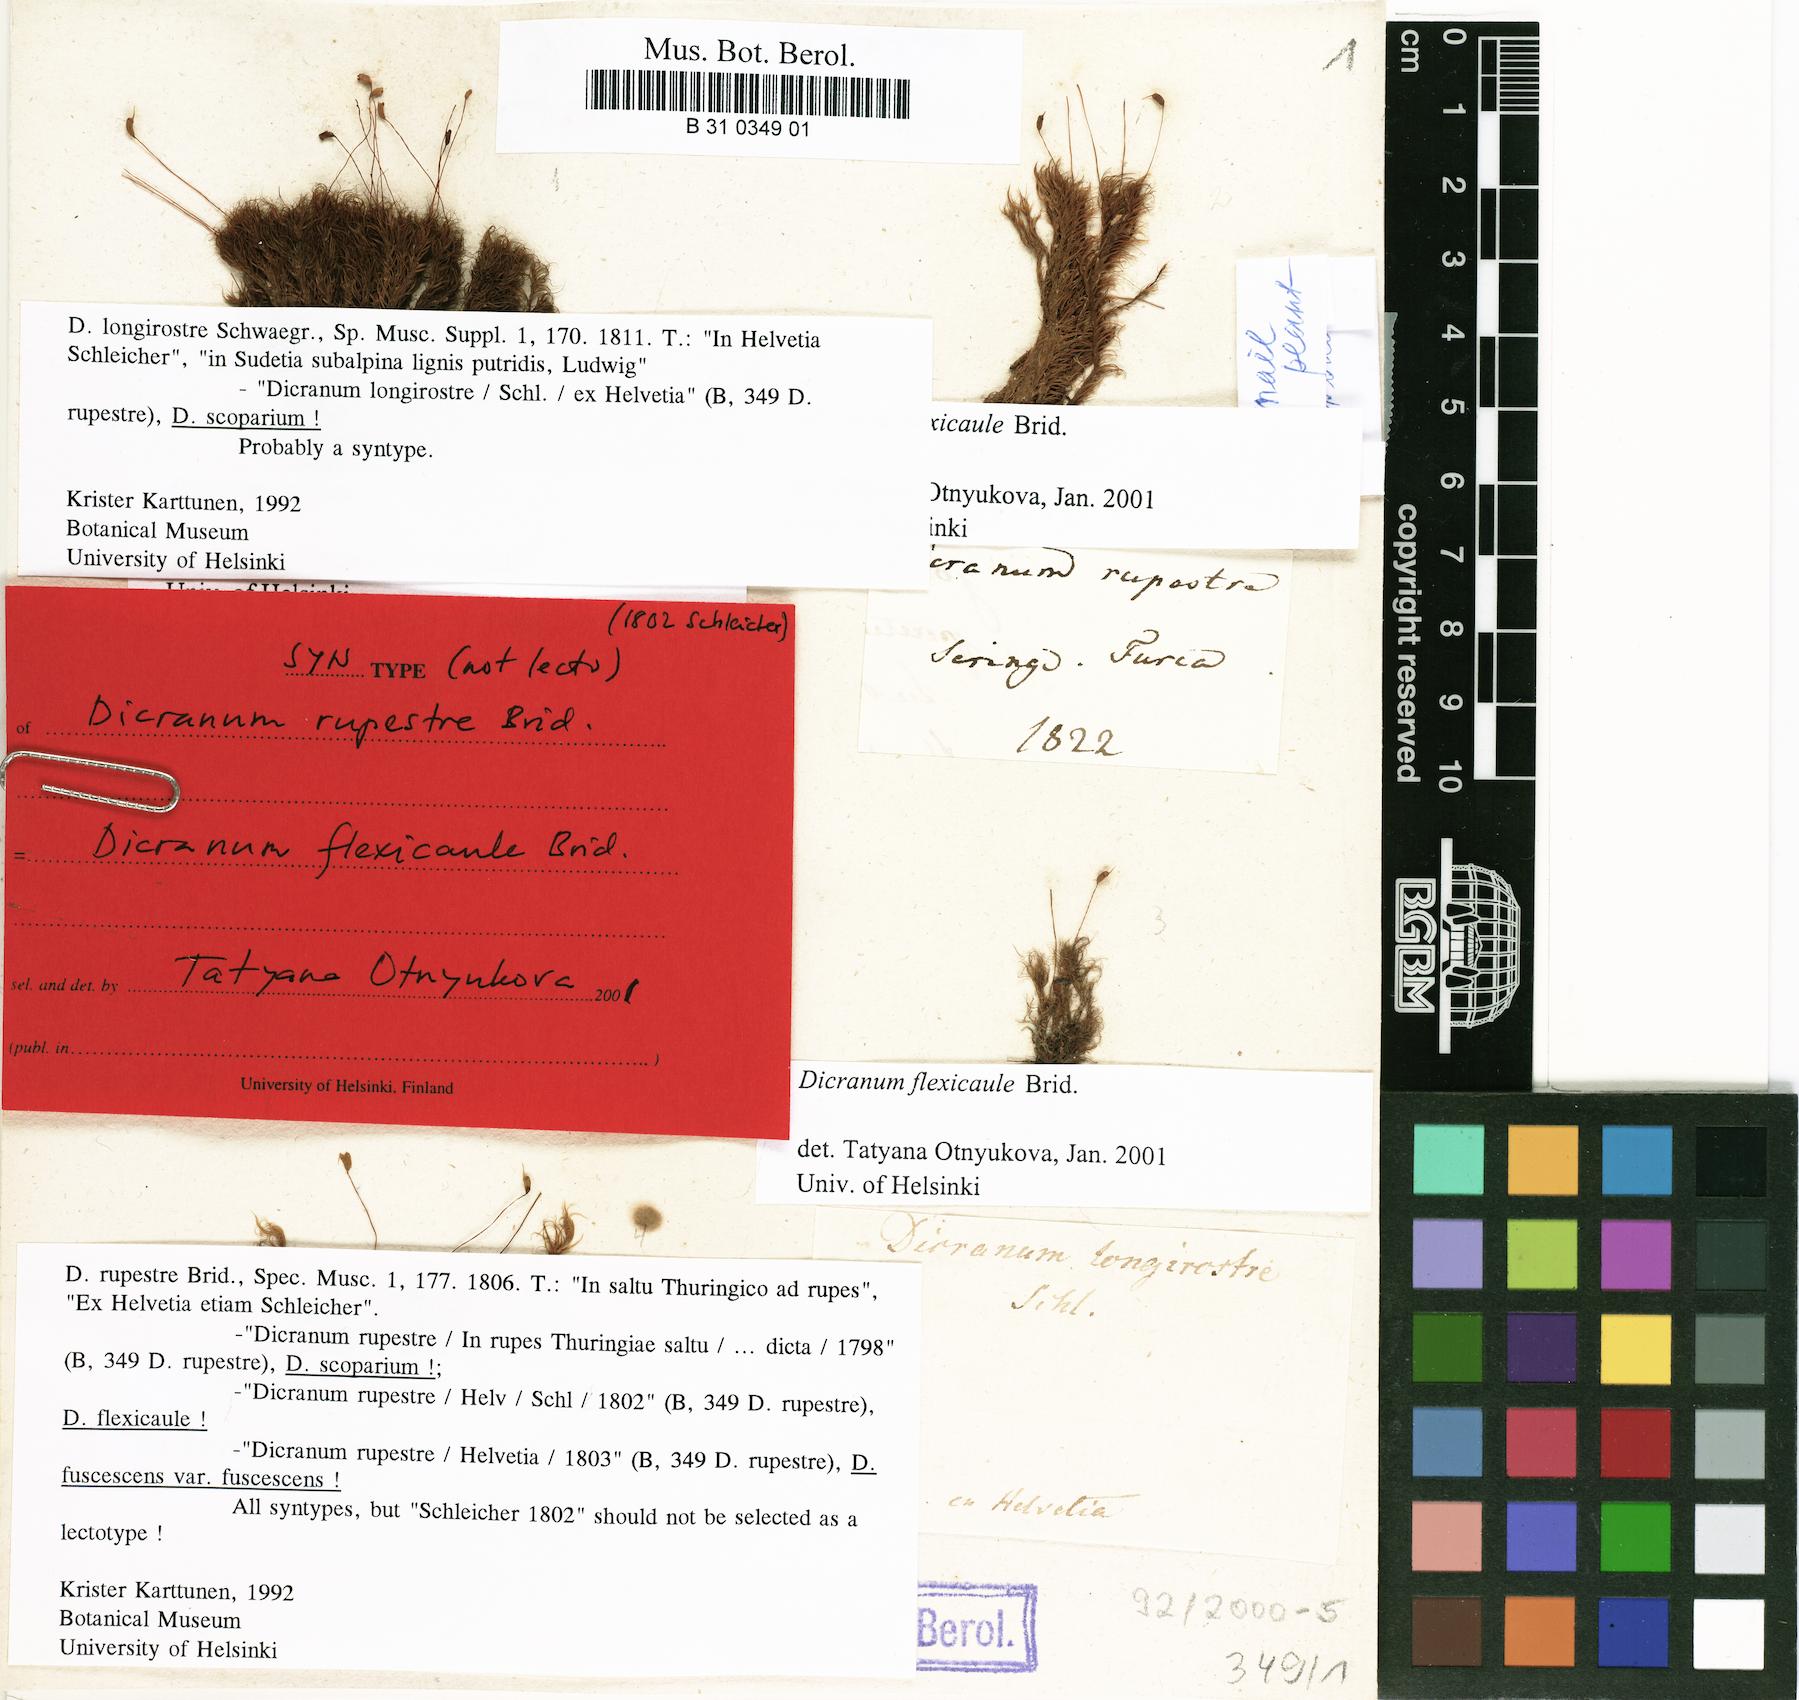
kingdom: Plantae
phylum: Bryophyta
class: Bryopsida
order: Dicranales
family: Dicranaceae
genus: Dicranum
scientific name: Dicranum fuscescens
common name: Curly heron's-bill moss
